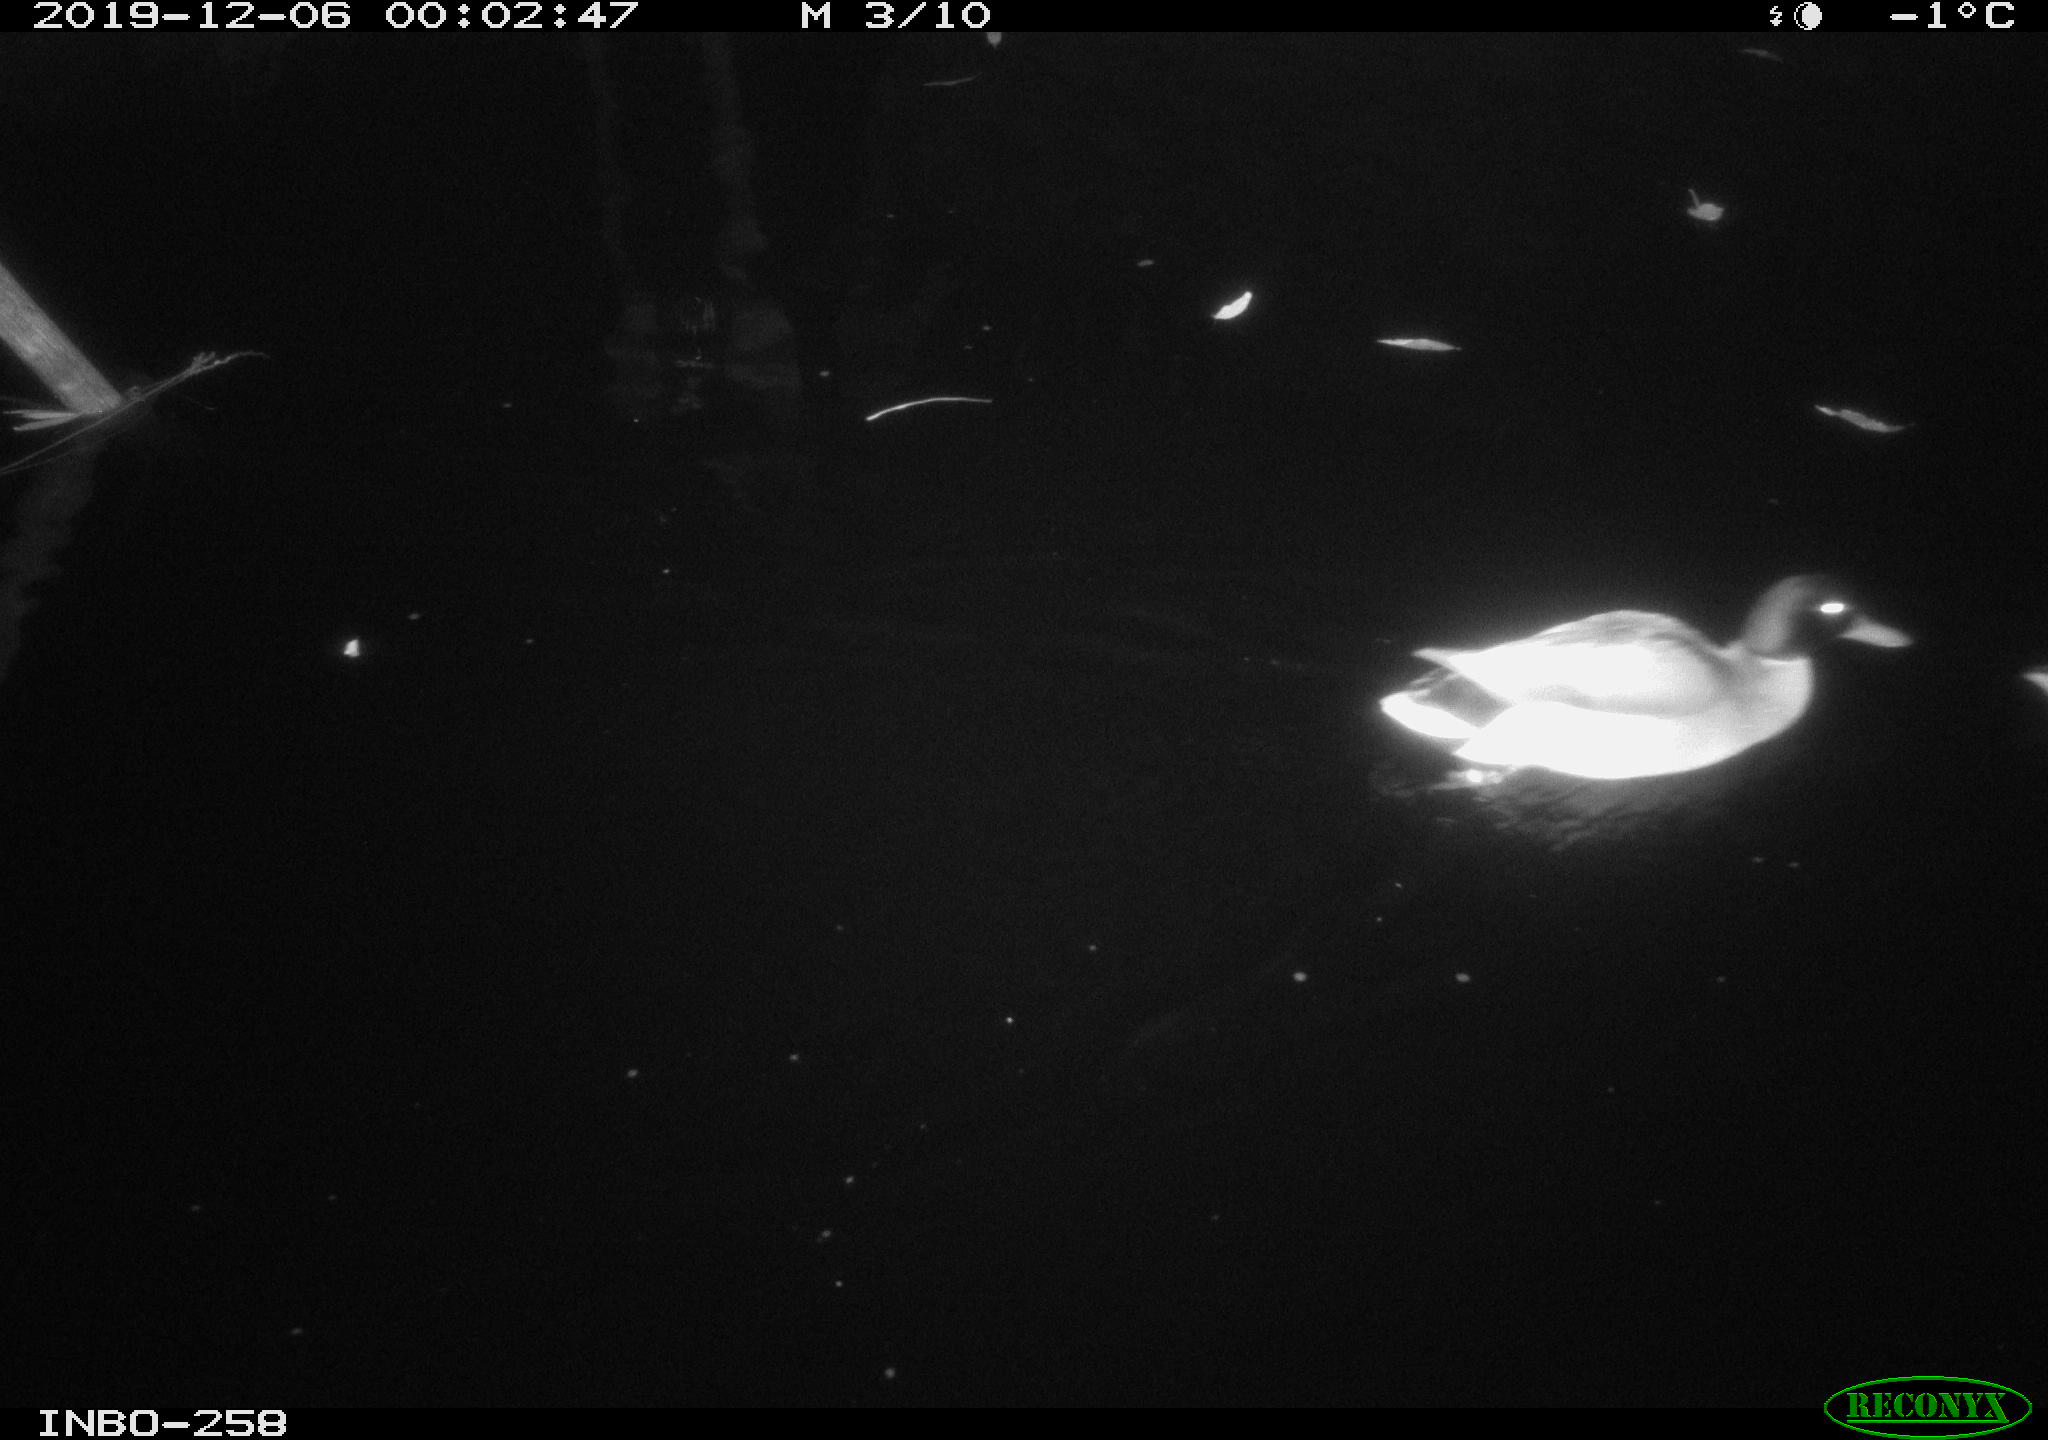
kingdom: Animalia
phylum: Chordata
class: Aves
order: Anseriformes
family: Anatidae
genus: Anas
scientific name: Anas platyrhynchos
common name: Mallard
